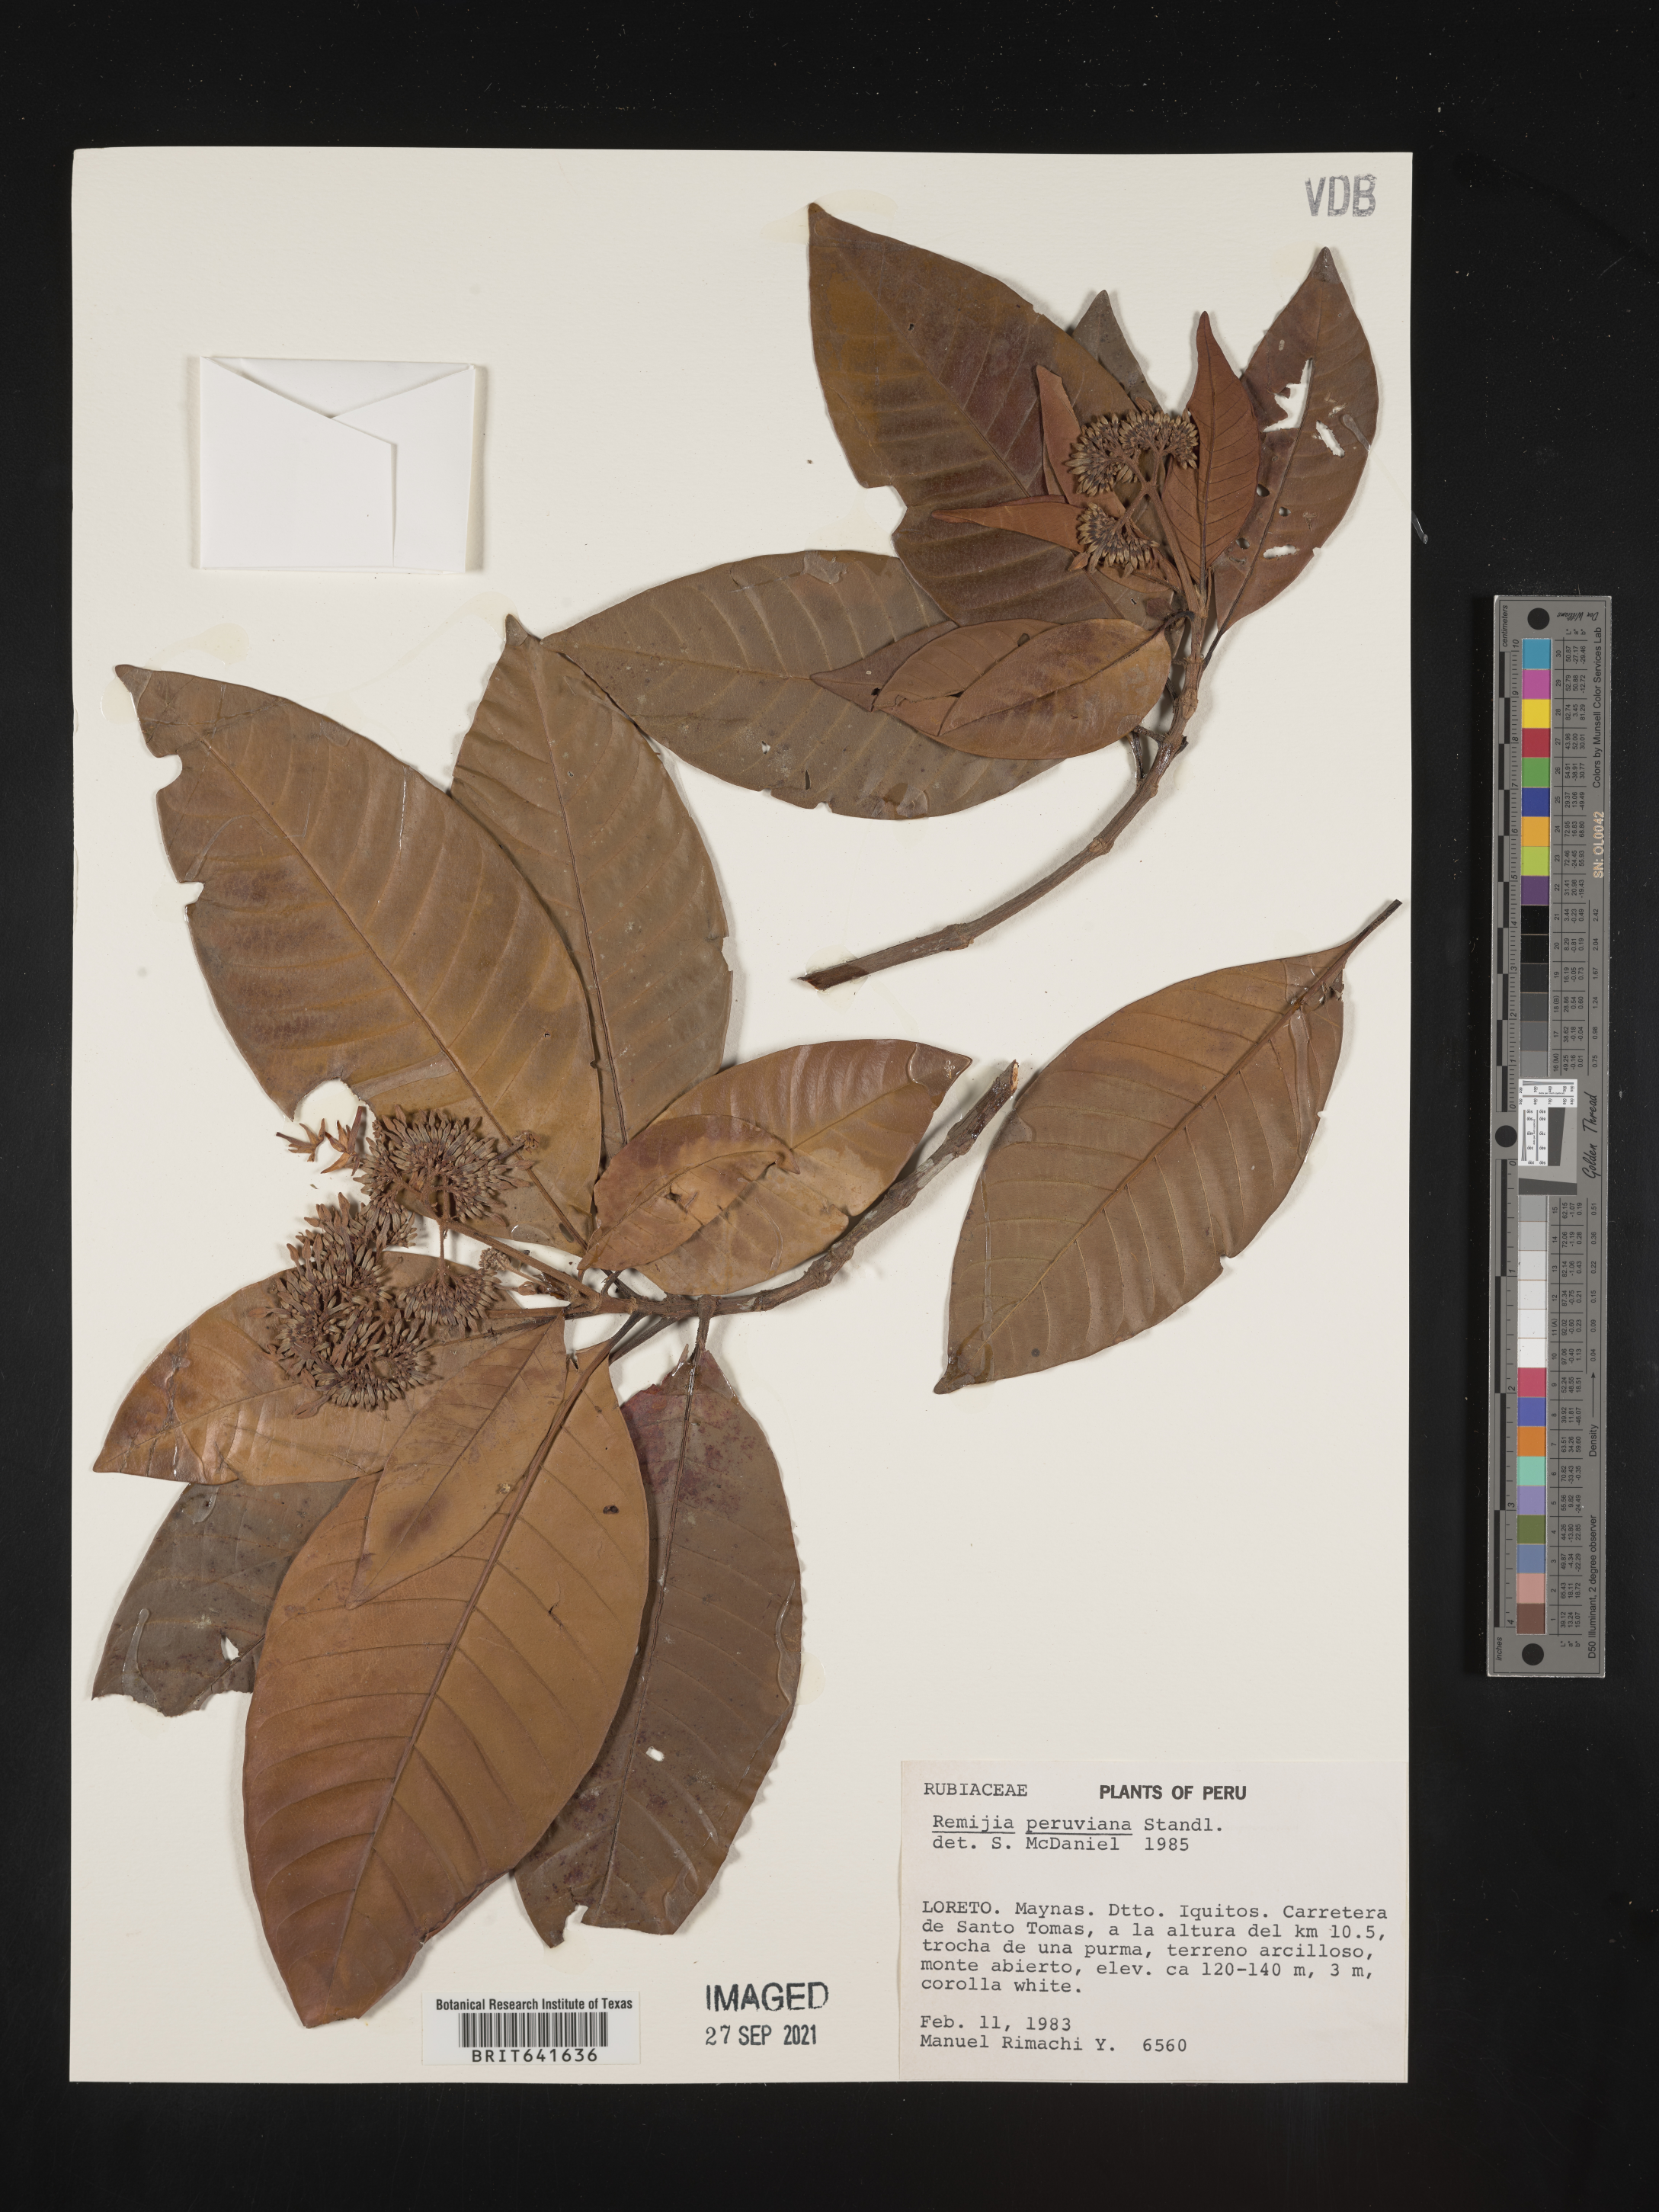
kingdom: Plantae
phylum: Tracheophyta
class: Magnoliopsida
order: Gentianales
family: Rubiaceae
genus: Remijia
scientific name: Remijia
